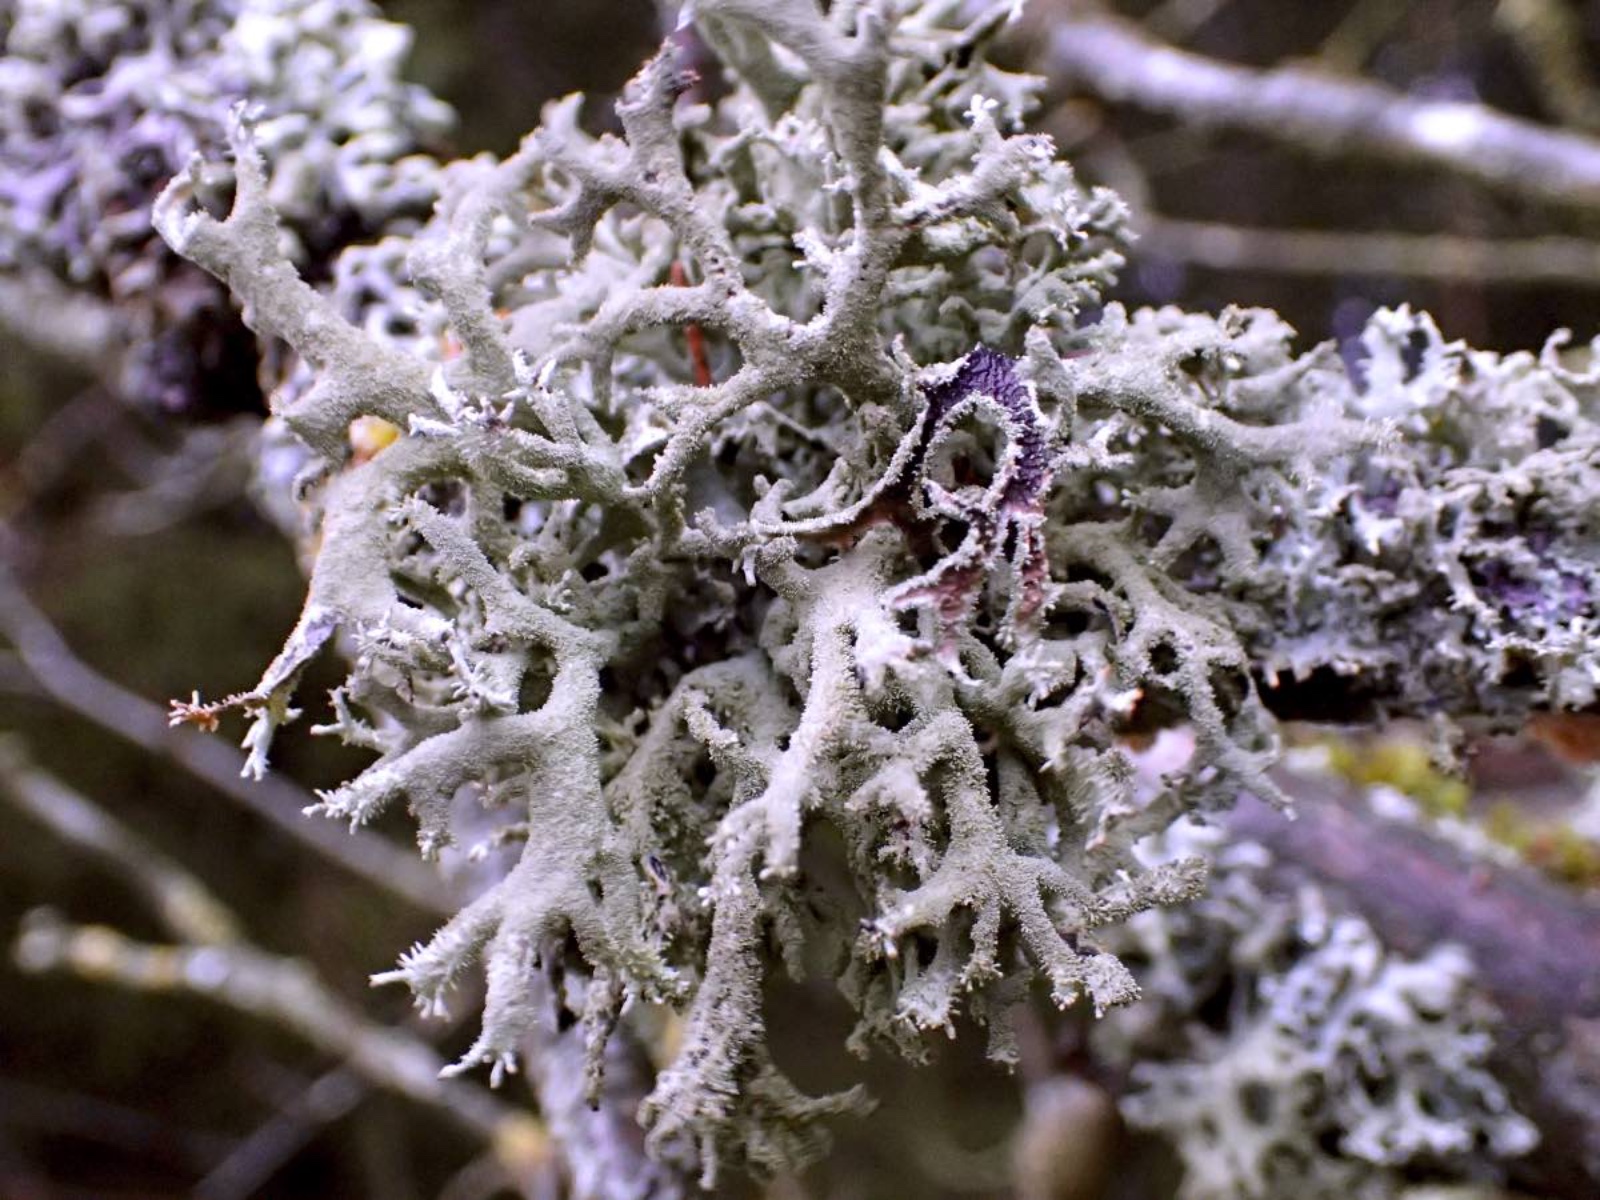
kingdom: Fungi
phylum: Ascomycota
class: Lecanoromycetes
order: Lecanorales
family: Parmeliaceae
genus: Pseudevernia
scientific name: Pseudevernia furfuracea
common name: grå fyrrelav
